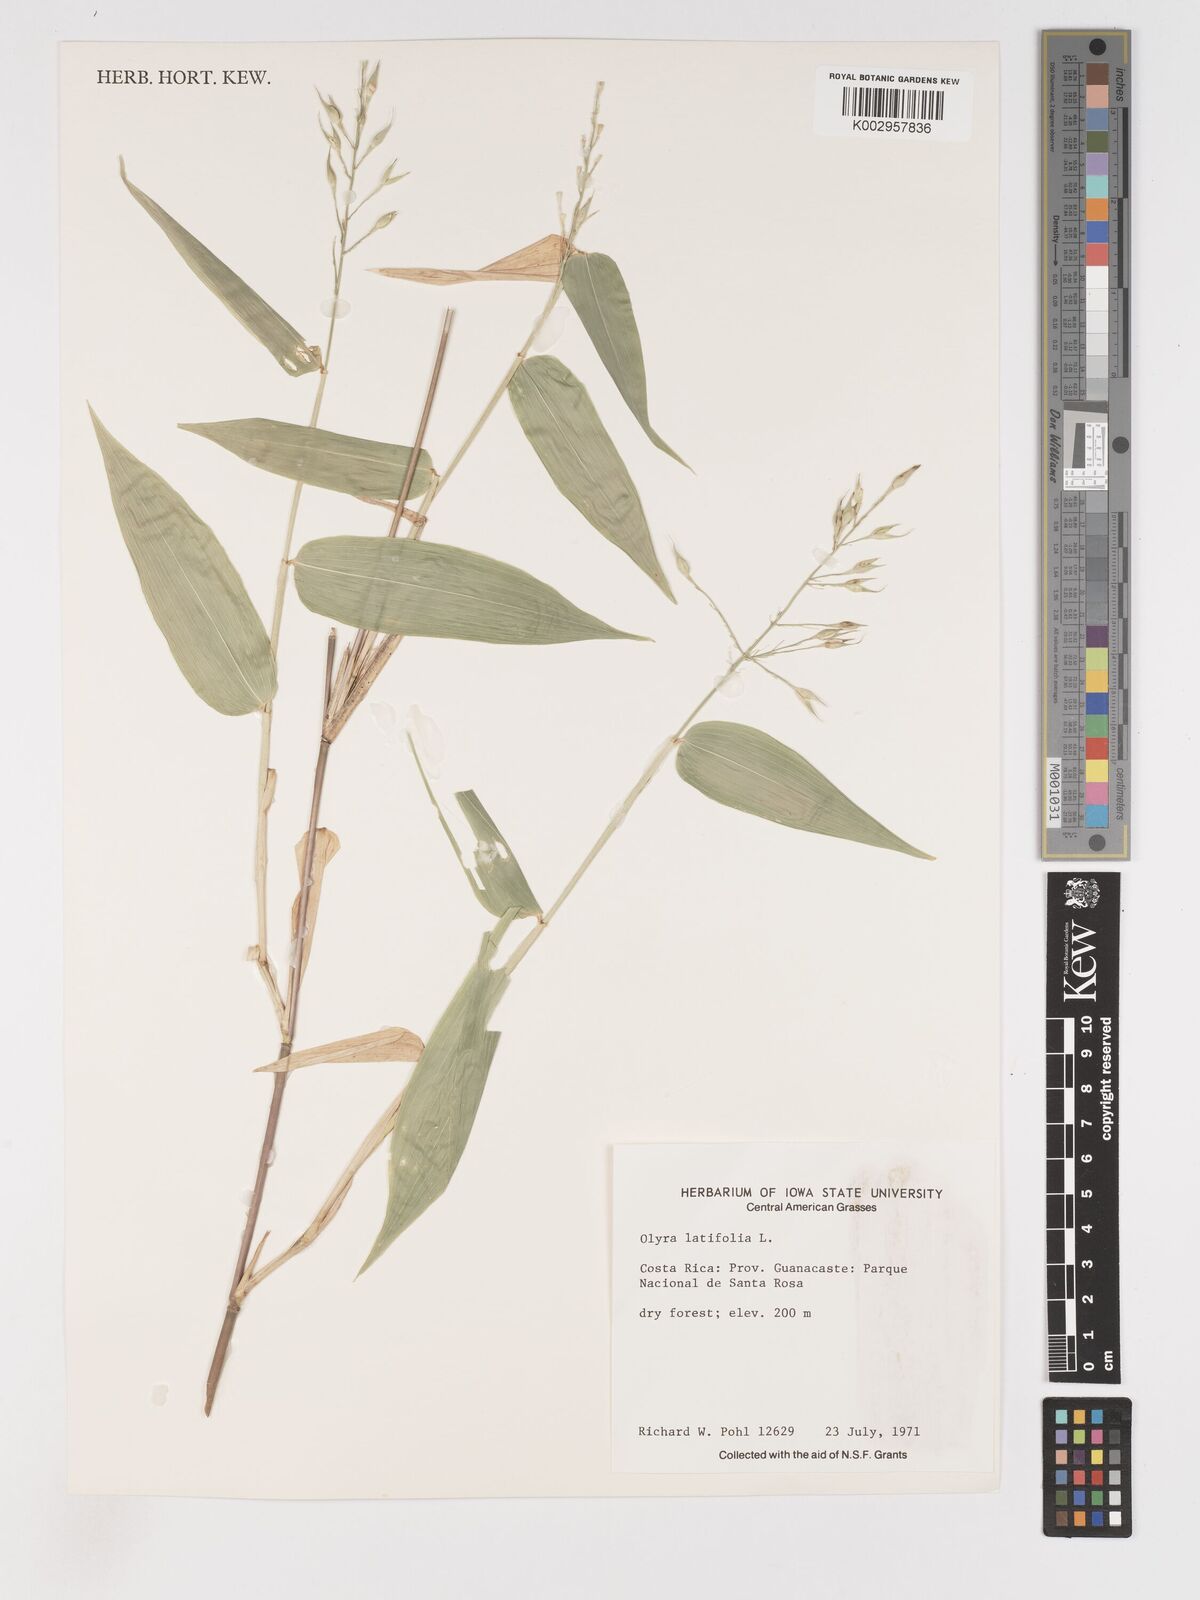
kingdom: Plantae
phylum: Tracheophyta
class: Liliopsida
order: Poales
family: Poaceae
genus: Olyra
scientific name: Olyra latifolia
